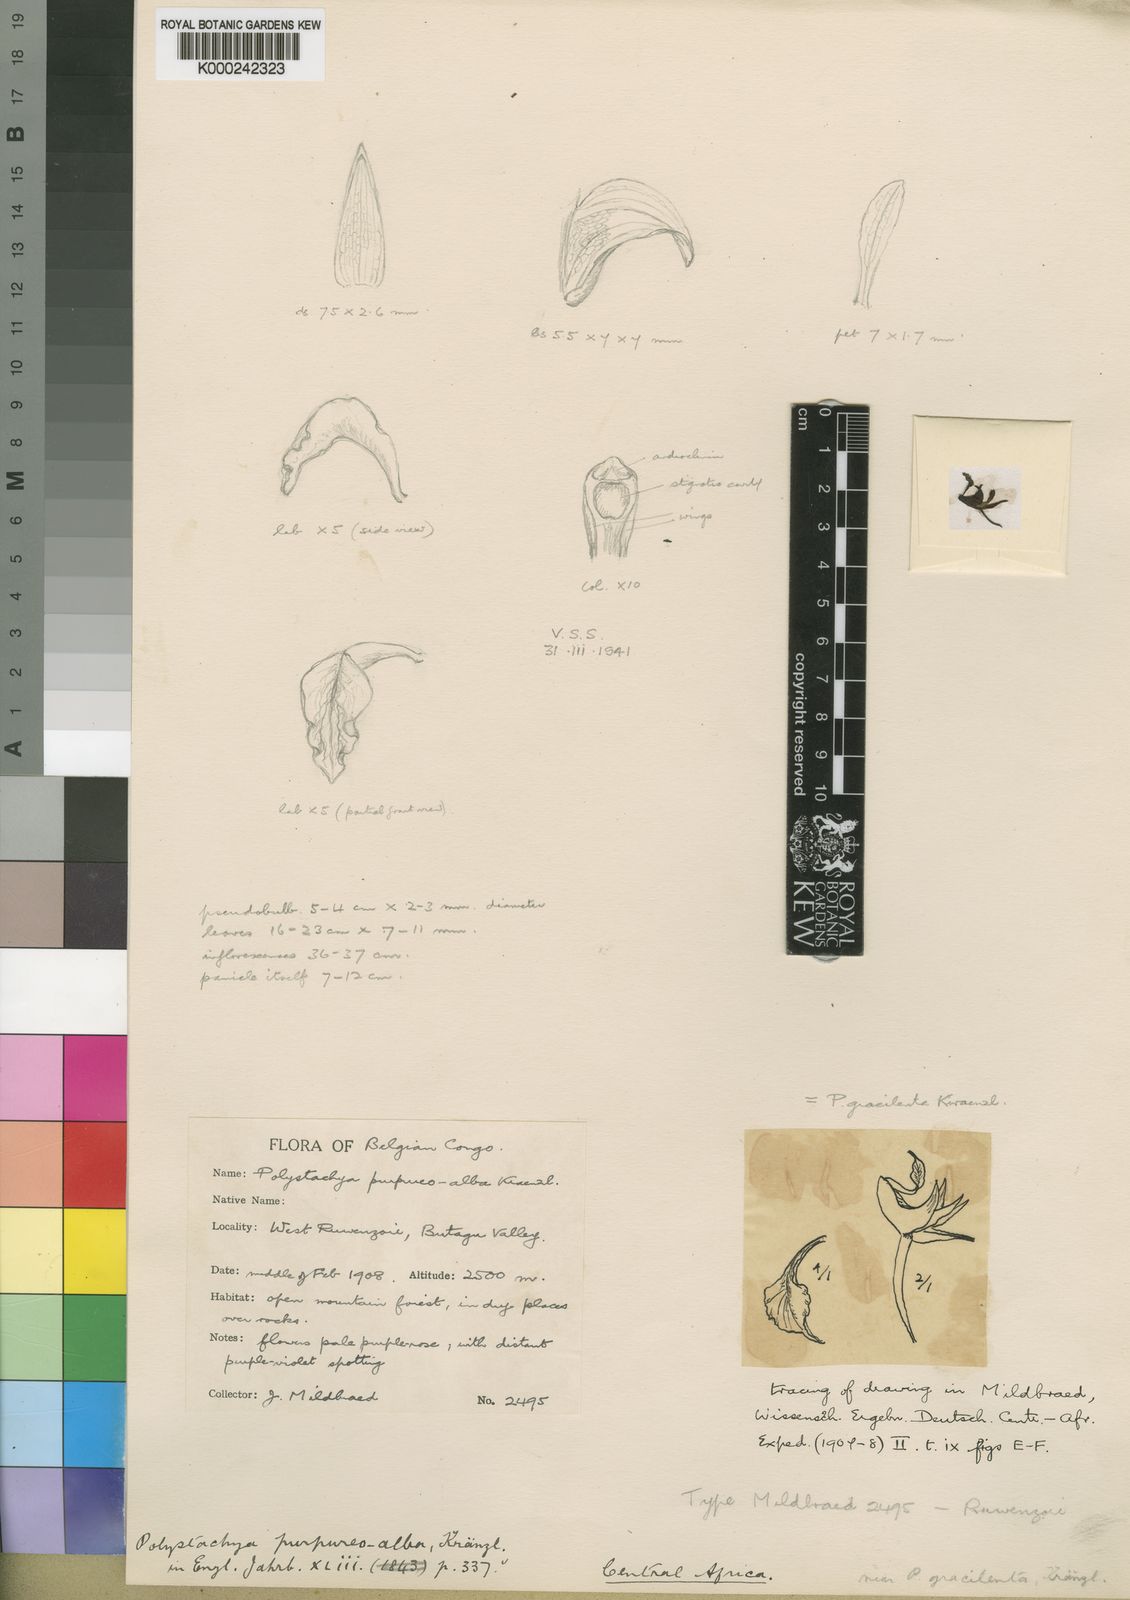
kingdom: Plantae
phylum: Tracheophyta
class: Liliopsida
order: Asparagales
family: Orchidaceae
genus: Polystachya
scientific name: Polystachya gracilenta
